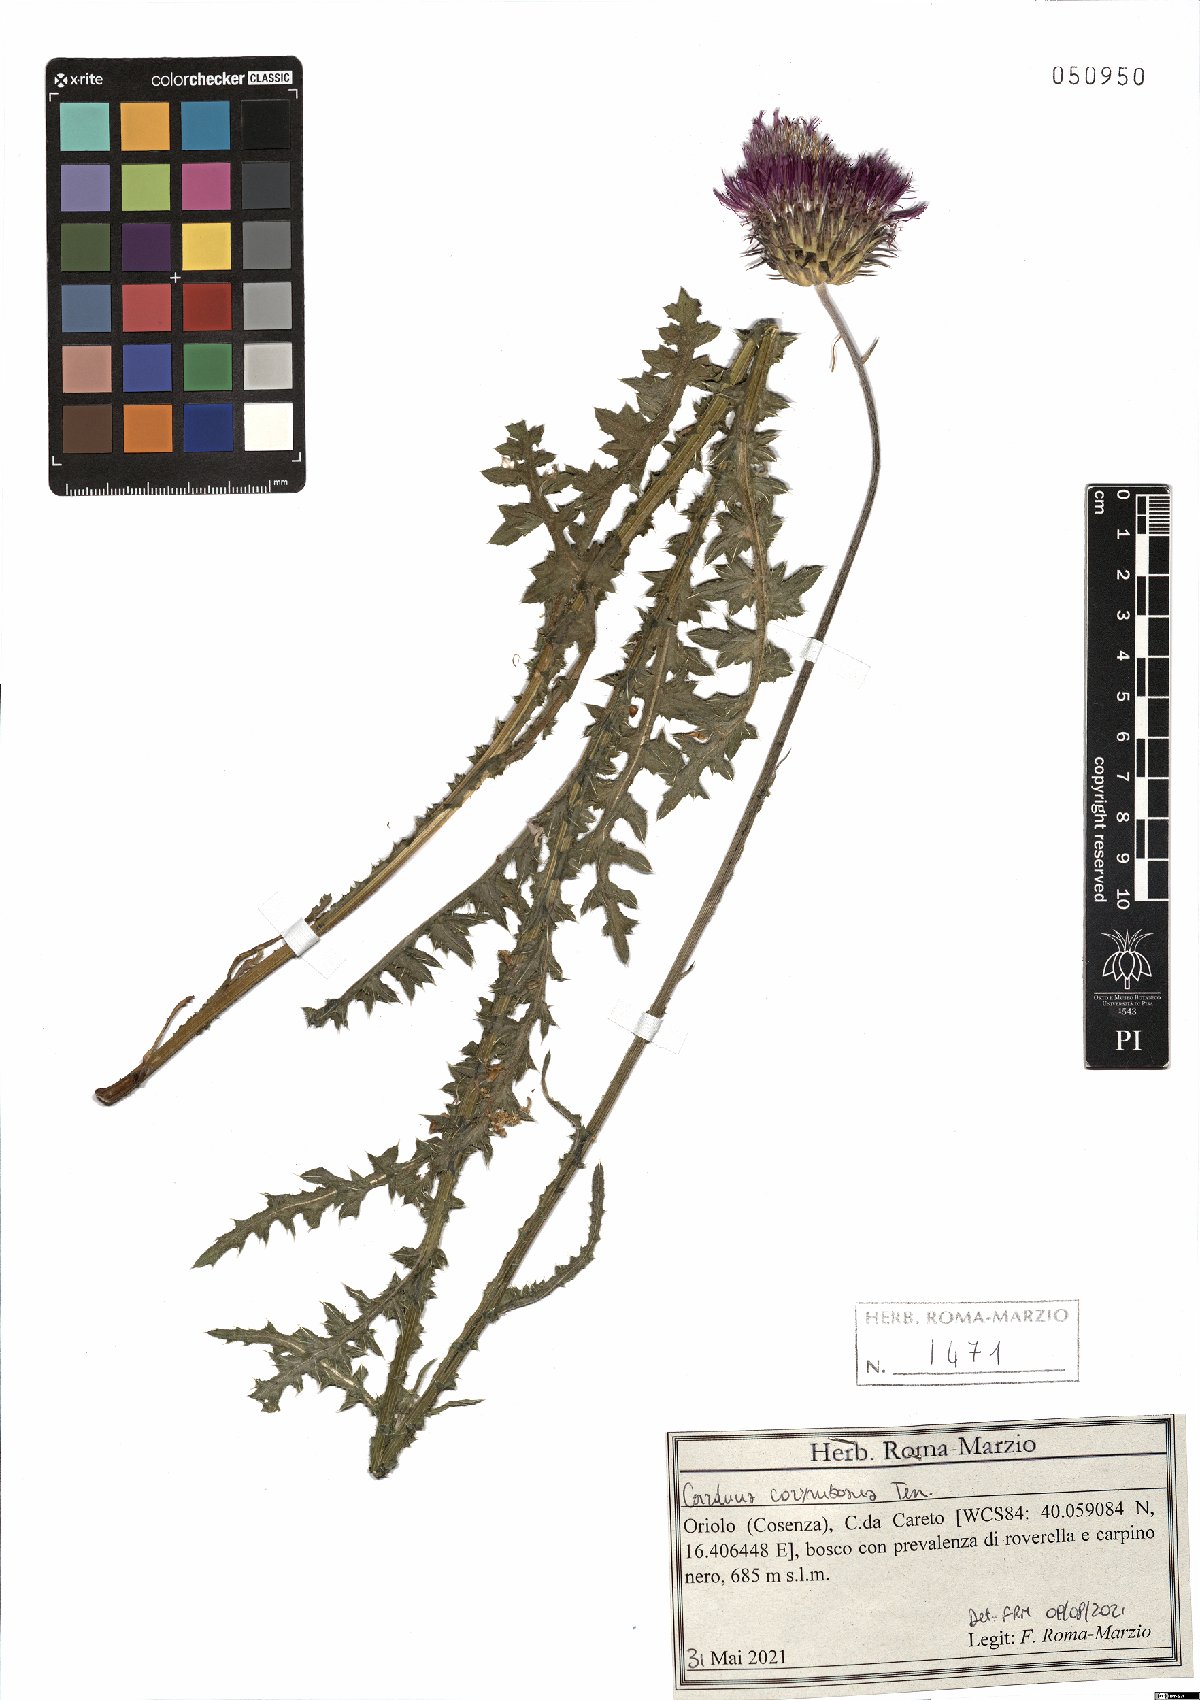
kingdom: Plantae
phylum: Tracheophyta
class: Magnoliopsida
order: Asterales
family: Asteraceae
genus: Carduus
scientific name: Carduus corymbosus
